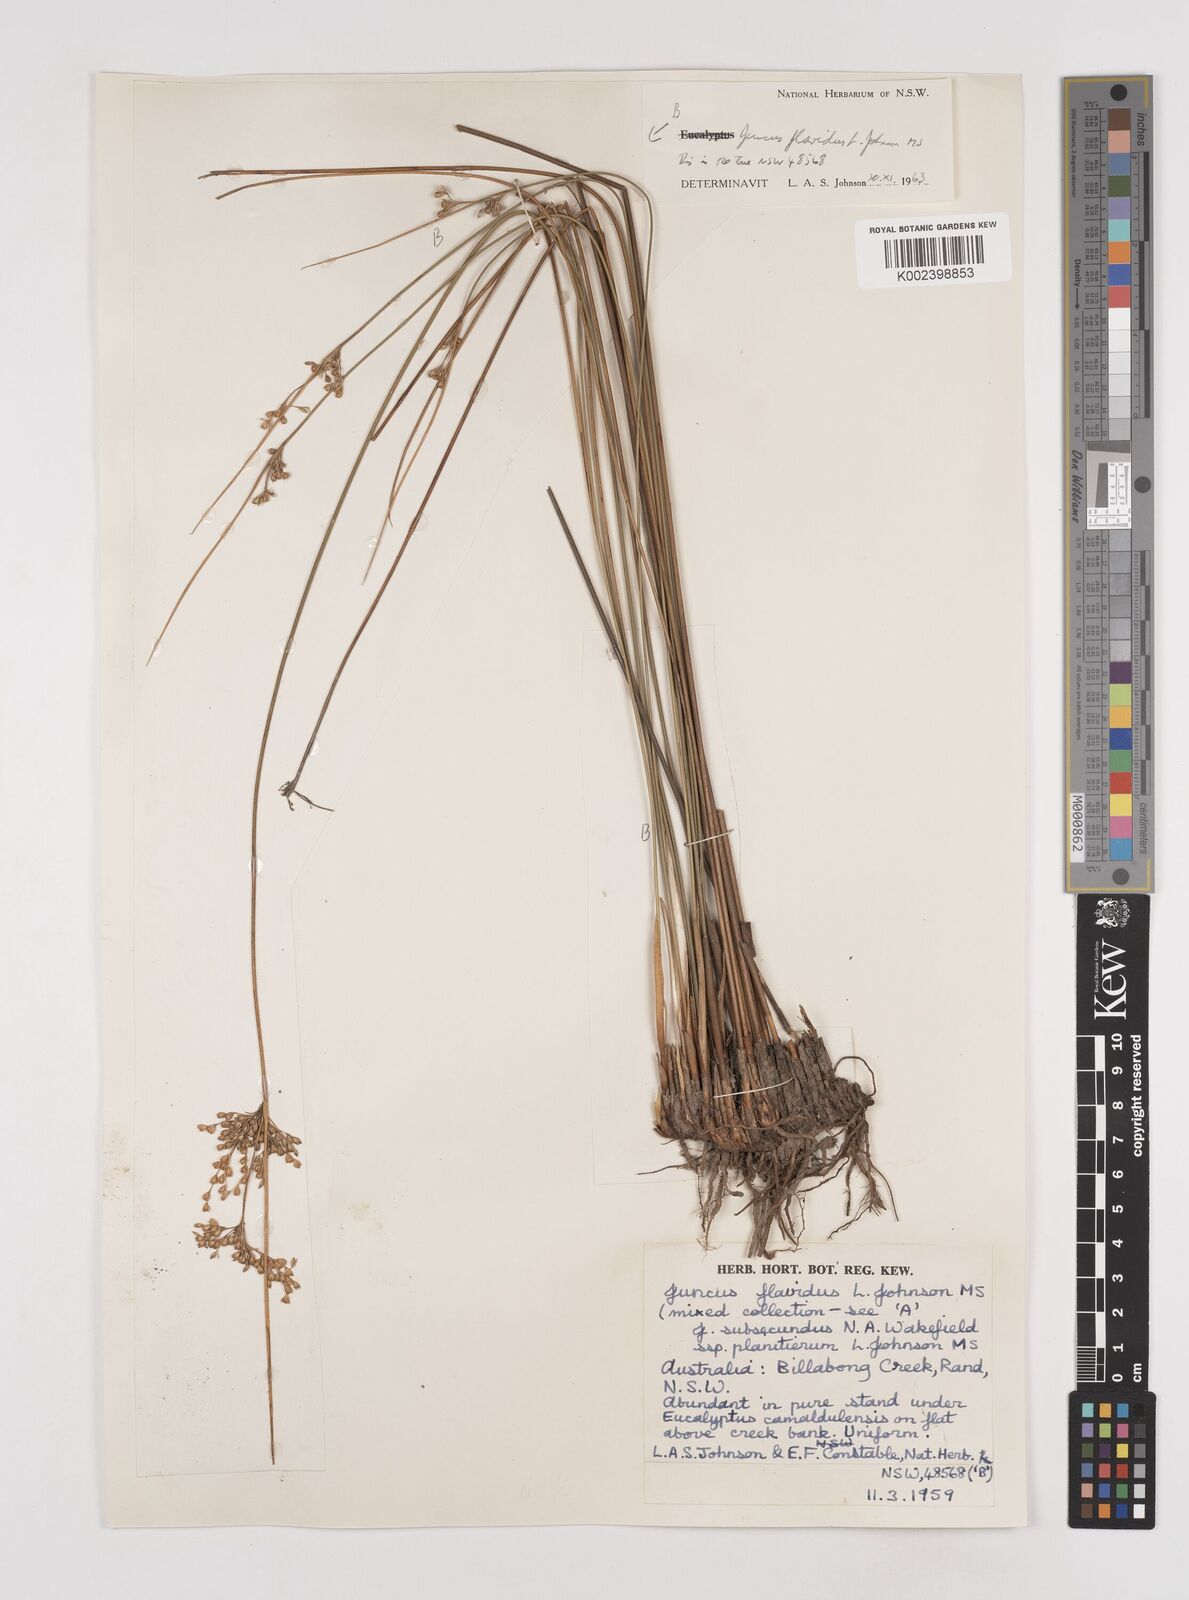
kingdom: Plantae
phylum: Tracheophyta
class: Liliopsida
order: Poales
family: Juncaceae
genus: Juncus
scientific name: Juncus flavidus
